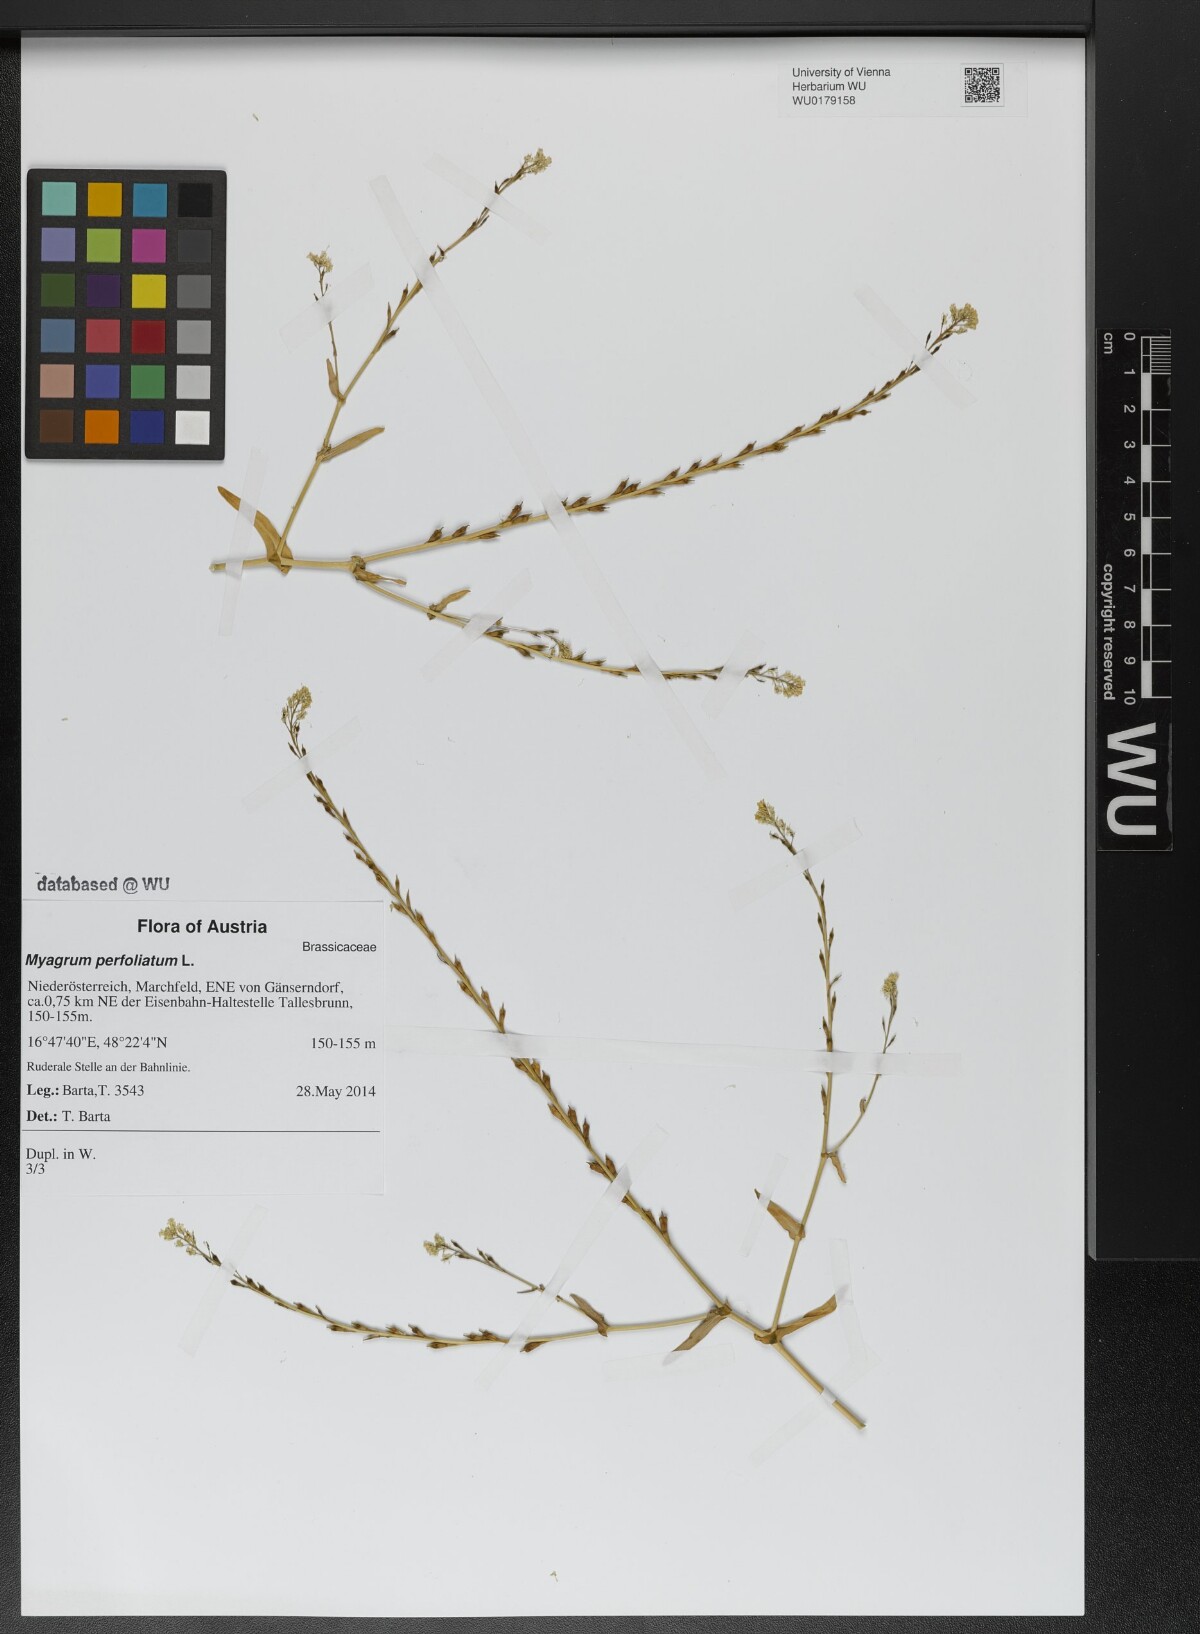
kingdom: Plantae
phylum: Tracheophyta
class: Magnoliopsida
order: Brassicales
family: Brassicaceae
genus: Myagrum
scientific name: Myagrum perfoliatum
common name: Mitre cress
